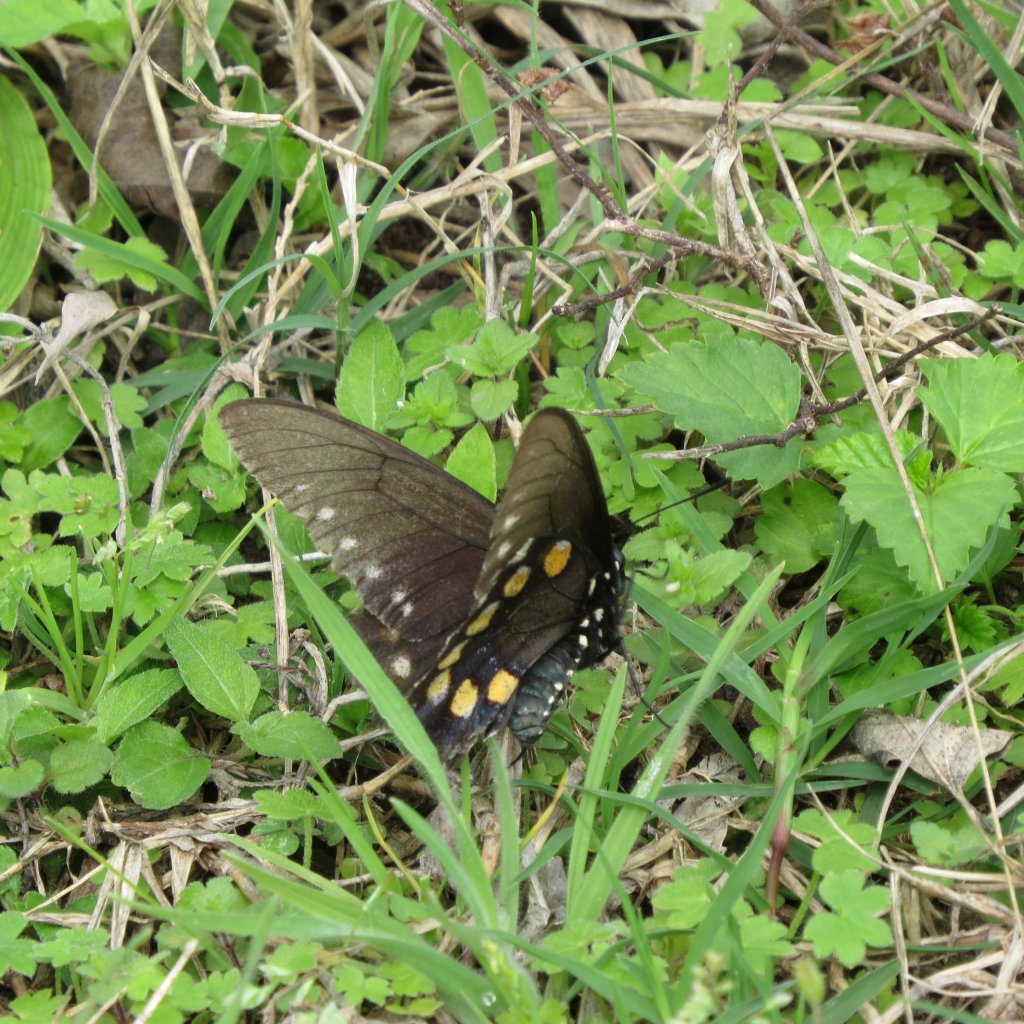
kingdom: Animalia
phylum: Arthropoda
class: Insecta
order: Lepidoptera
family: Papilionidae
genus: Battus
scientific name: Battus philenor
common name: Pipevine Swallowtail
